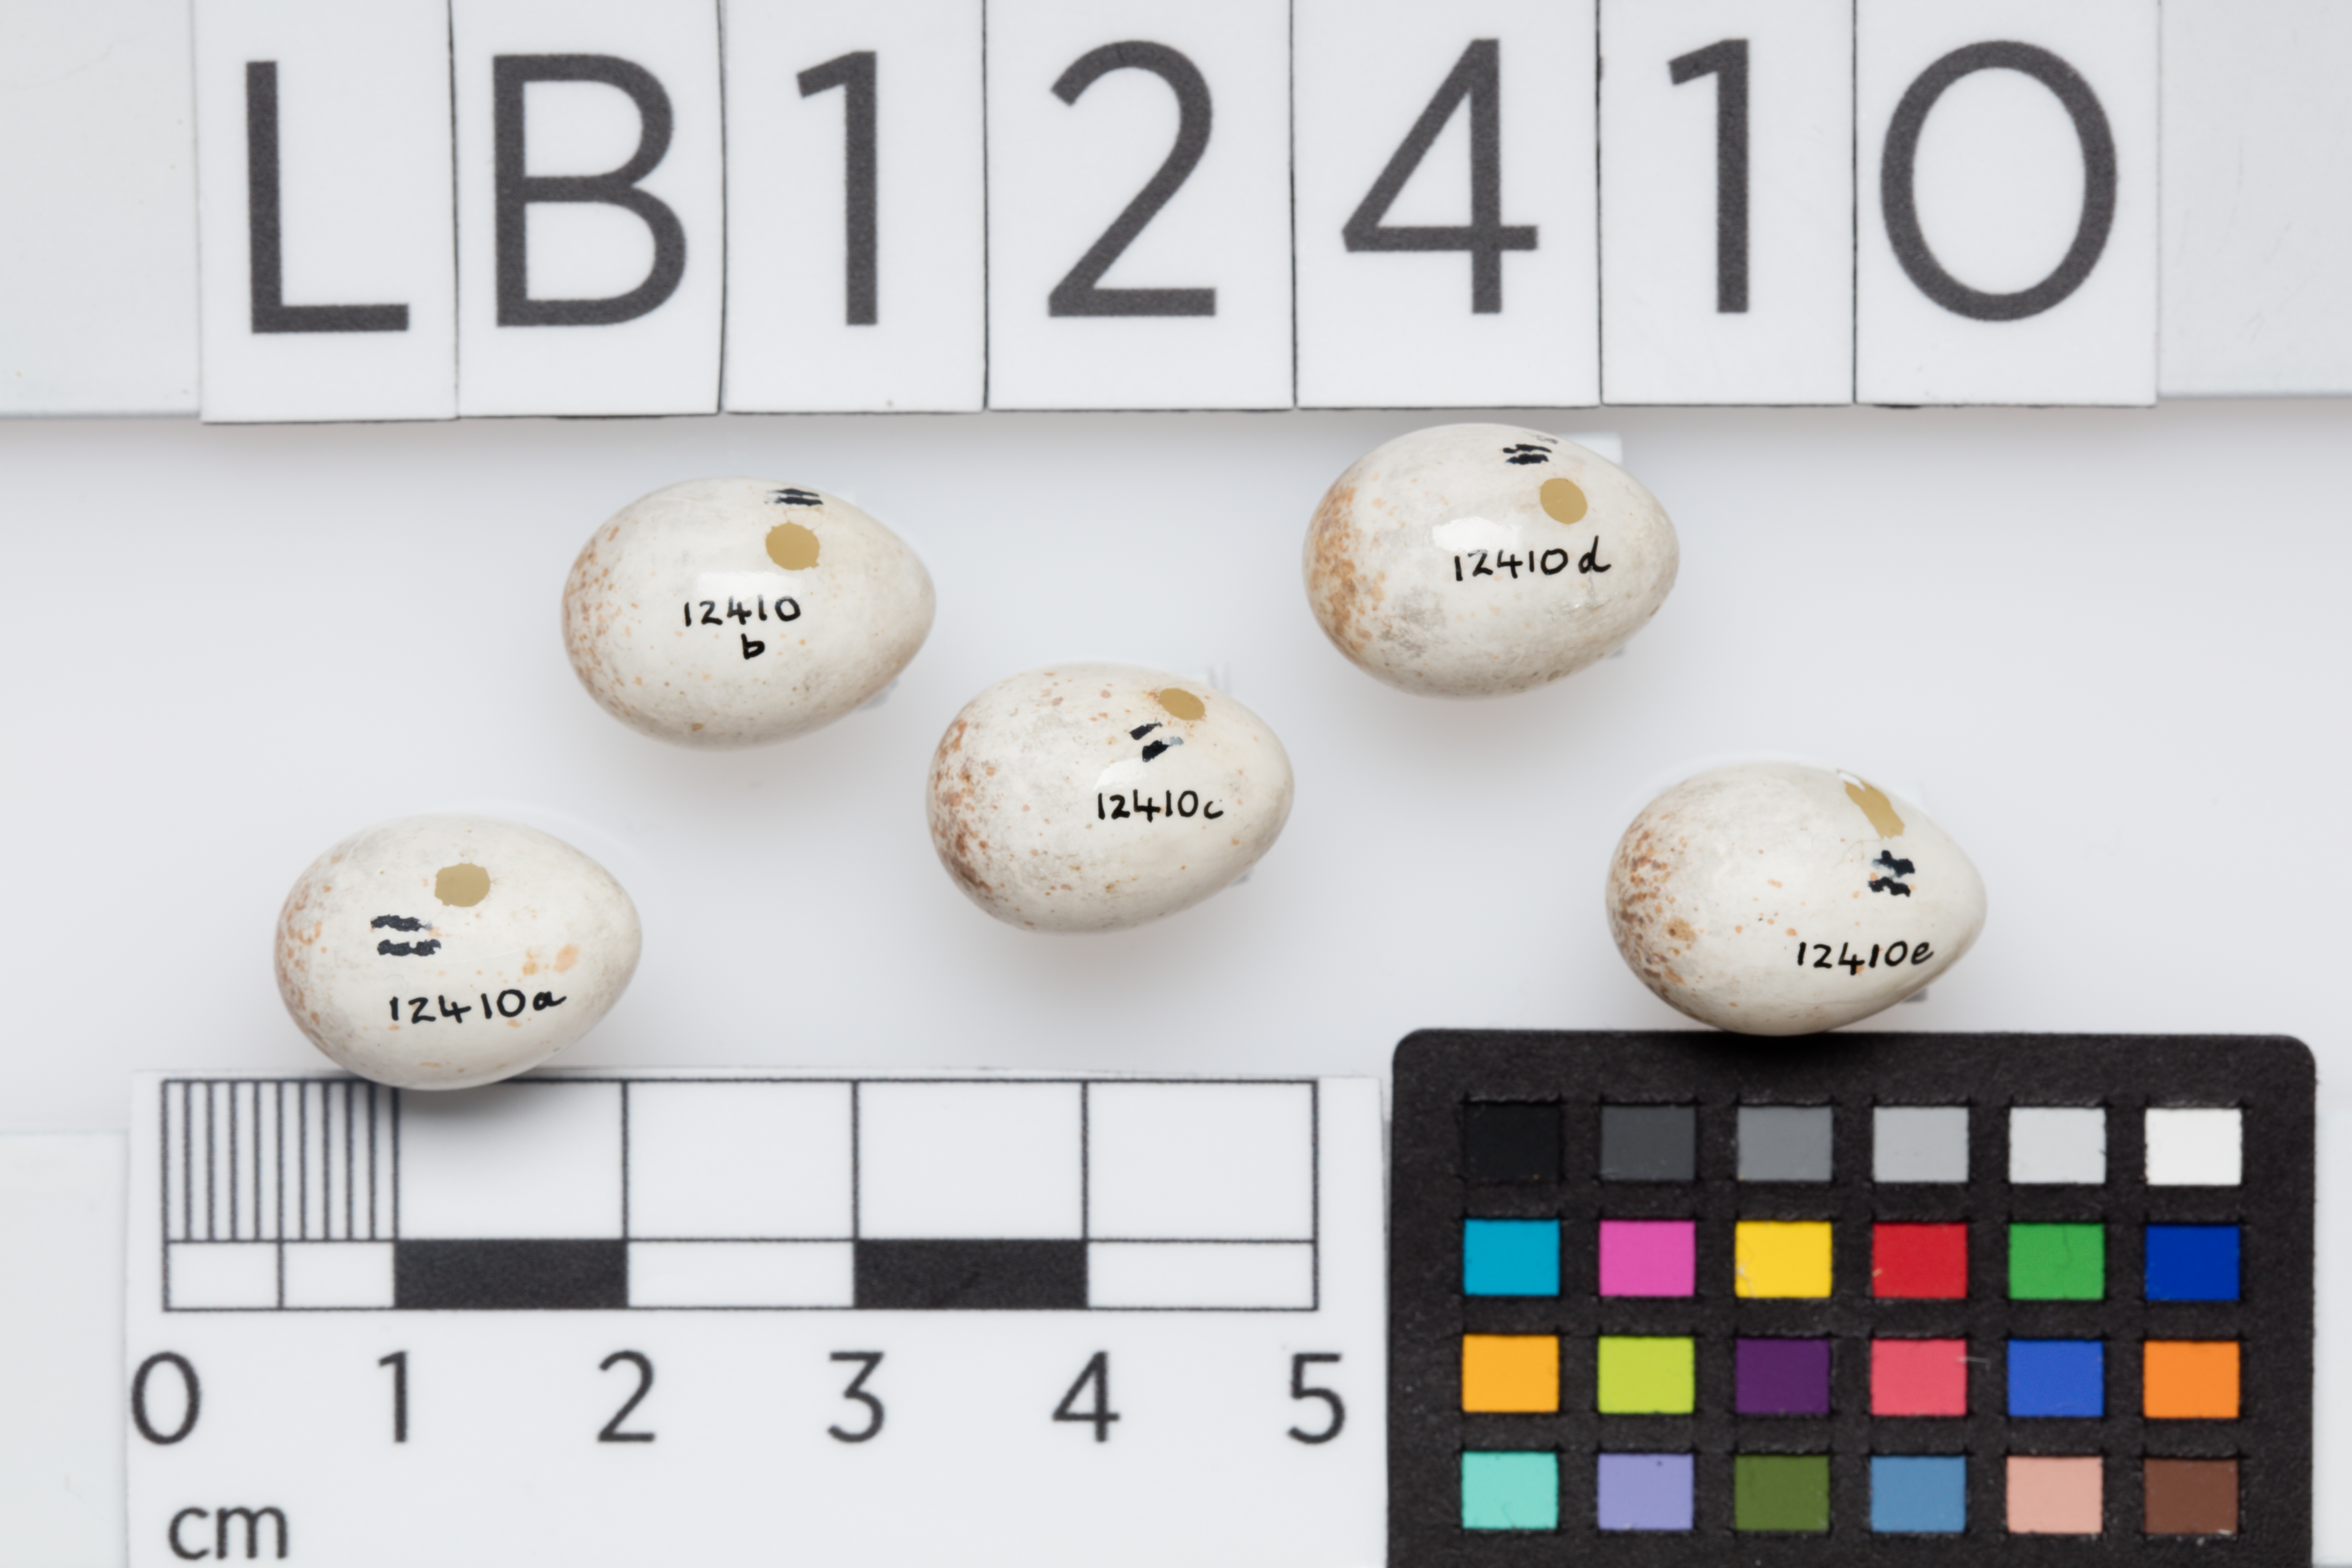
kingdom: Animalia
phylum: Chordata
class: Aves
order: Passeriformes
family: Certhiidae
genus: Certhia
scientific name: Certhia familiaris
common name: Eurasian treecreeper
